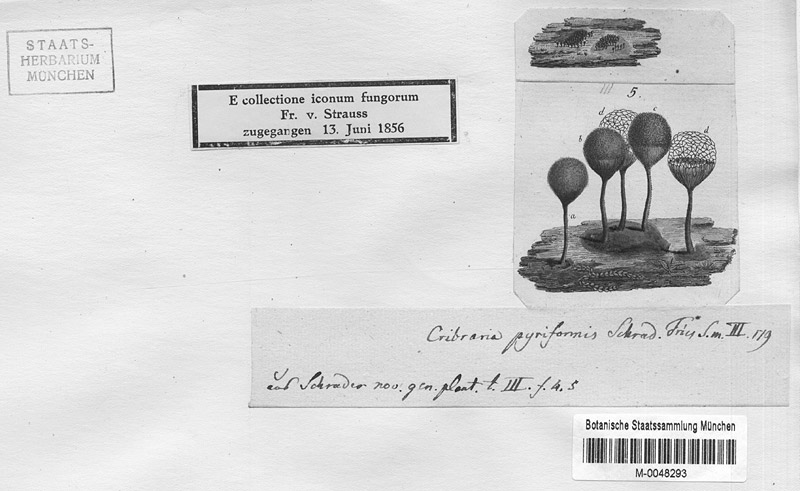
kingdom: Protozoa
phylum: Mycetozoa
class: Myxomycetes
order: Cribrariales
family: Cribrariaceae
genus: Cribraria
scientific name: Cribraria piriformis
